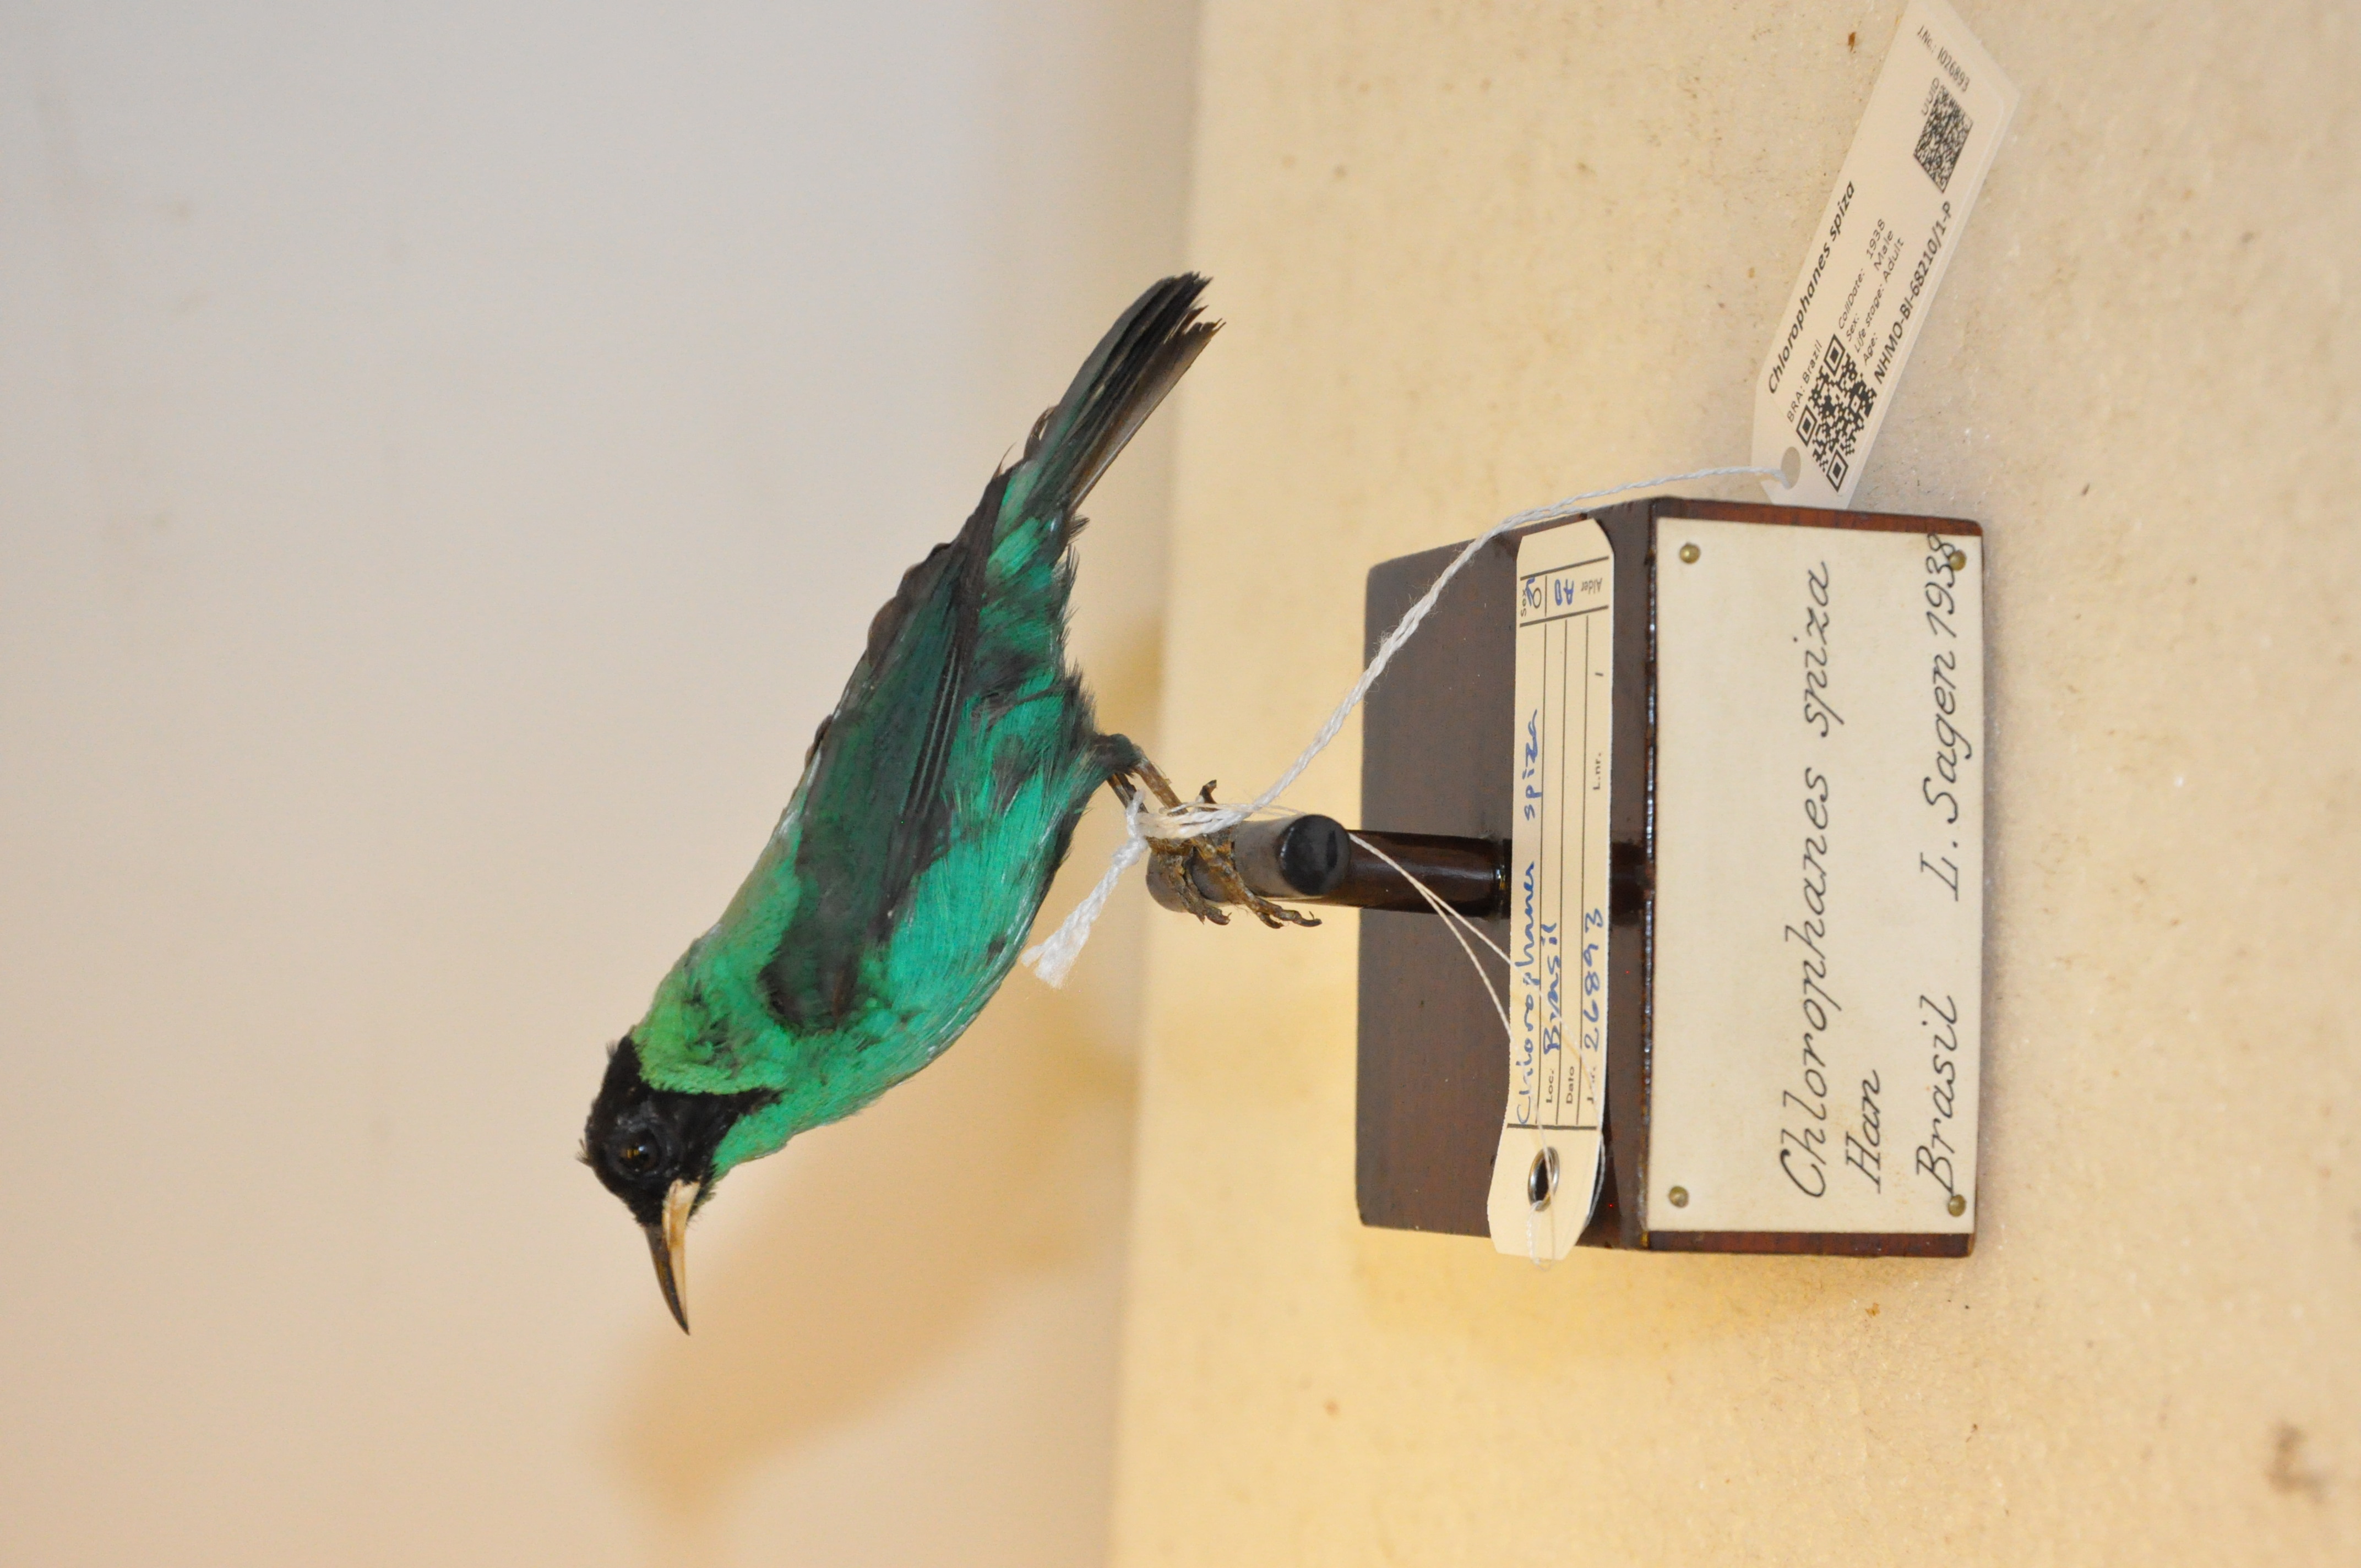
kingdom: Animalia
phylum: Chordata
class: Aves
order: Passeriformes
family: Thraupidae
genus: Chlorophanes
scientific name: Chlorophanes spiza
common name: Green honeycreeper
